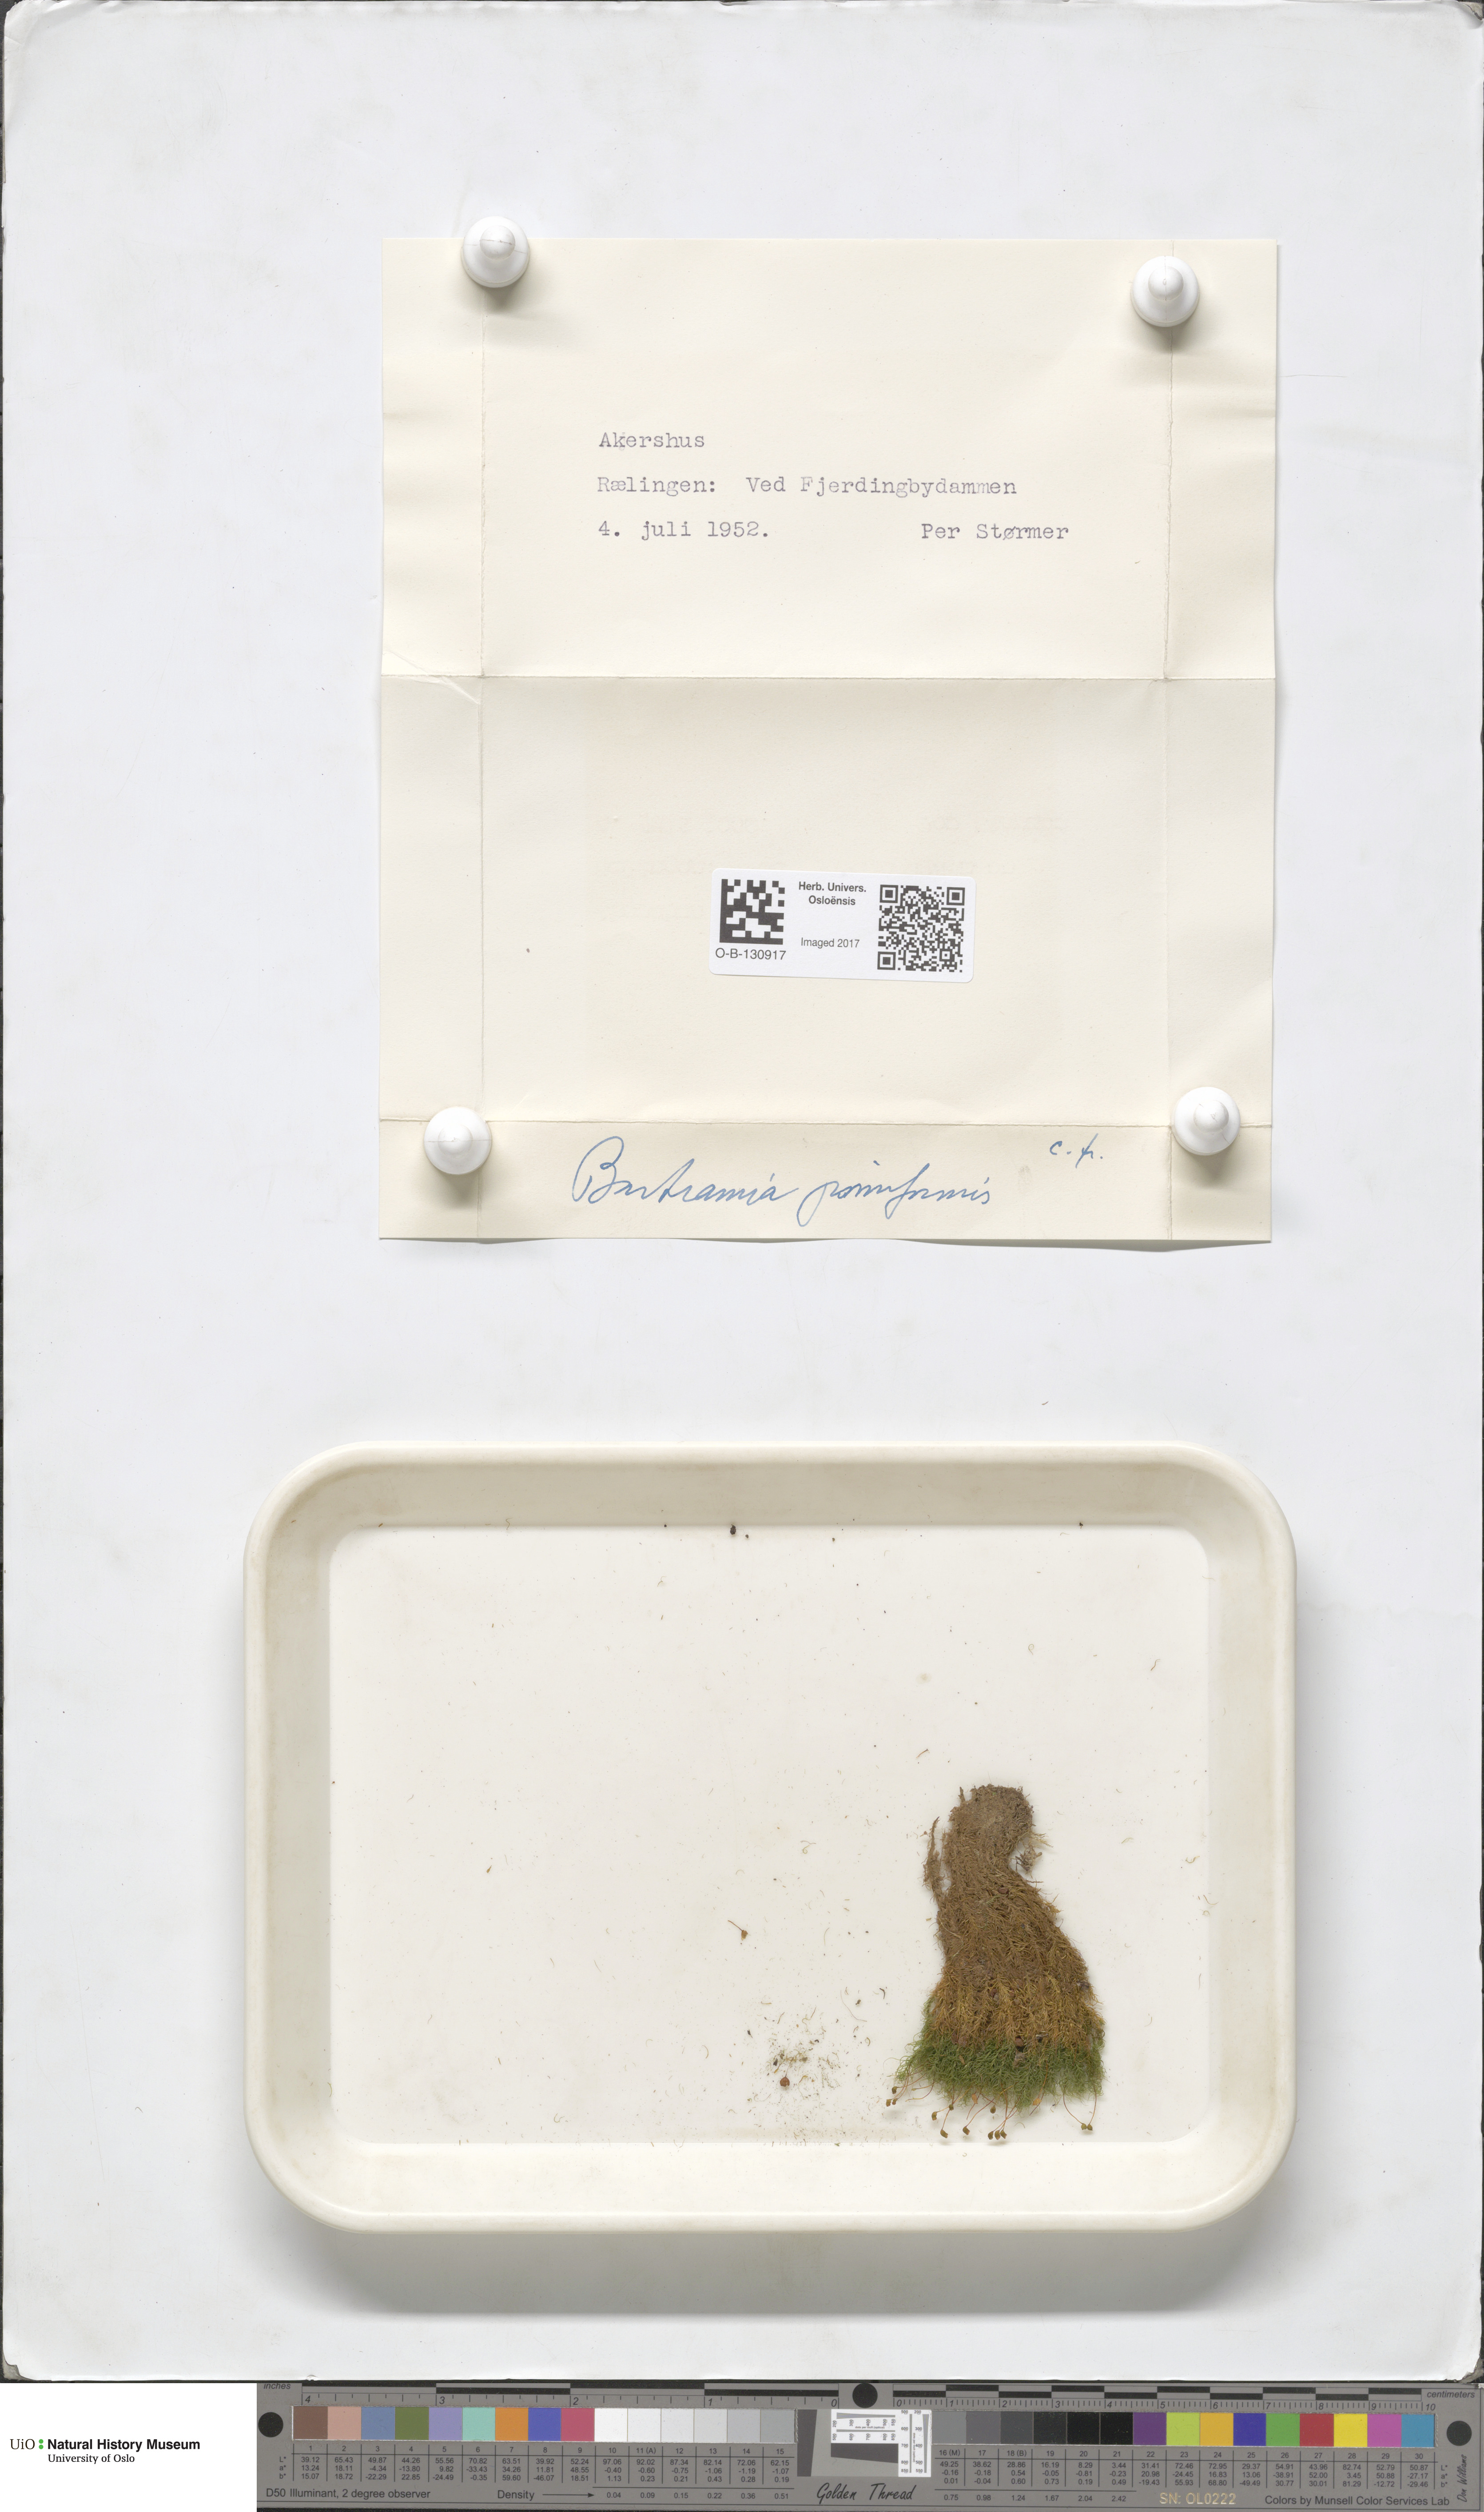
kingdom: Plantae
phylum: Bryophyta
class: Bryopsida
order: Bartramiales
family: Bartramiaceae
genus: Bartramia
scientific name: Bartramia pomiformis
